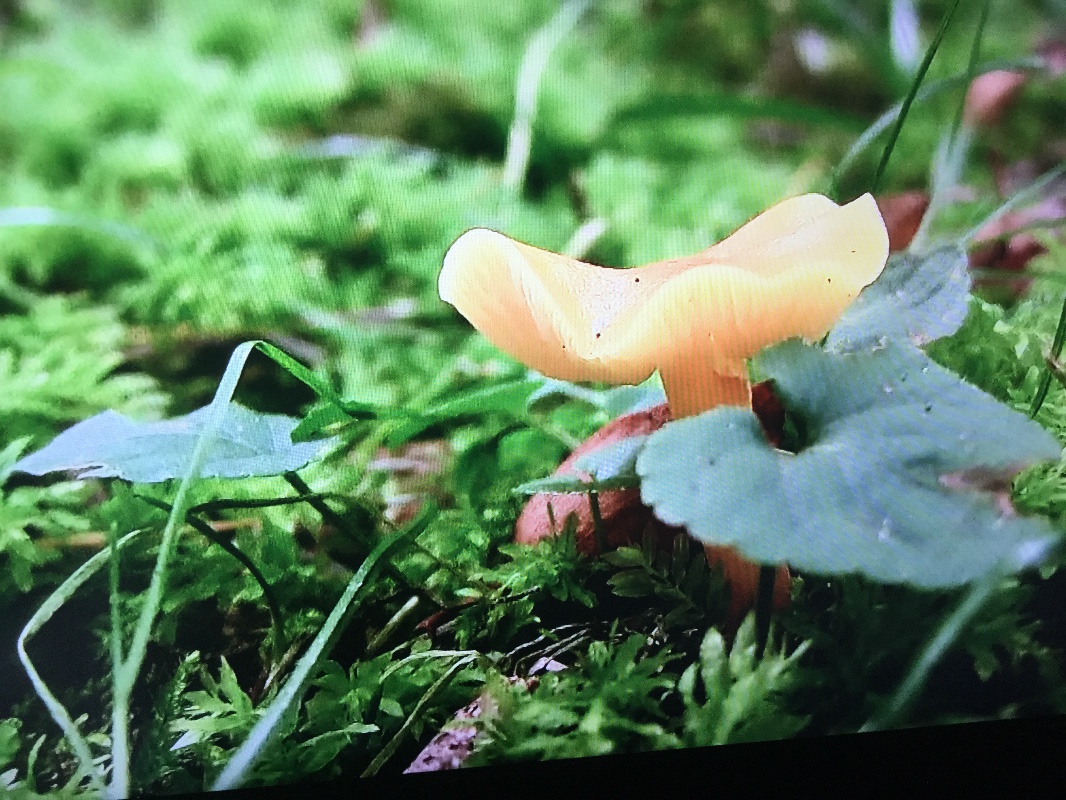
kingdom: Fungi
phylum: Basidiomycota
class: Agaricomycetes
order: Agaricales
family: Hygrophoraceae
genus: Hygrocybe
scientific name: Hygrocybe chlorophana
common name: gul vokshat
